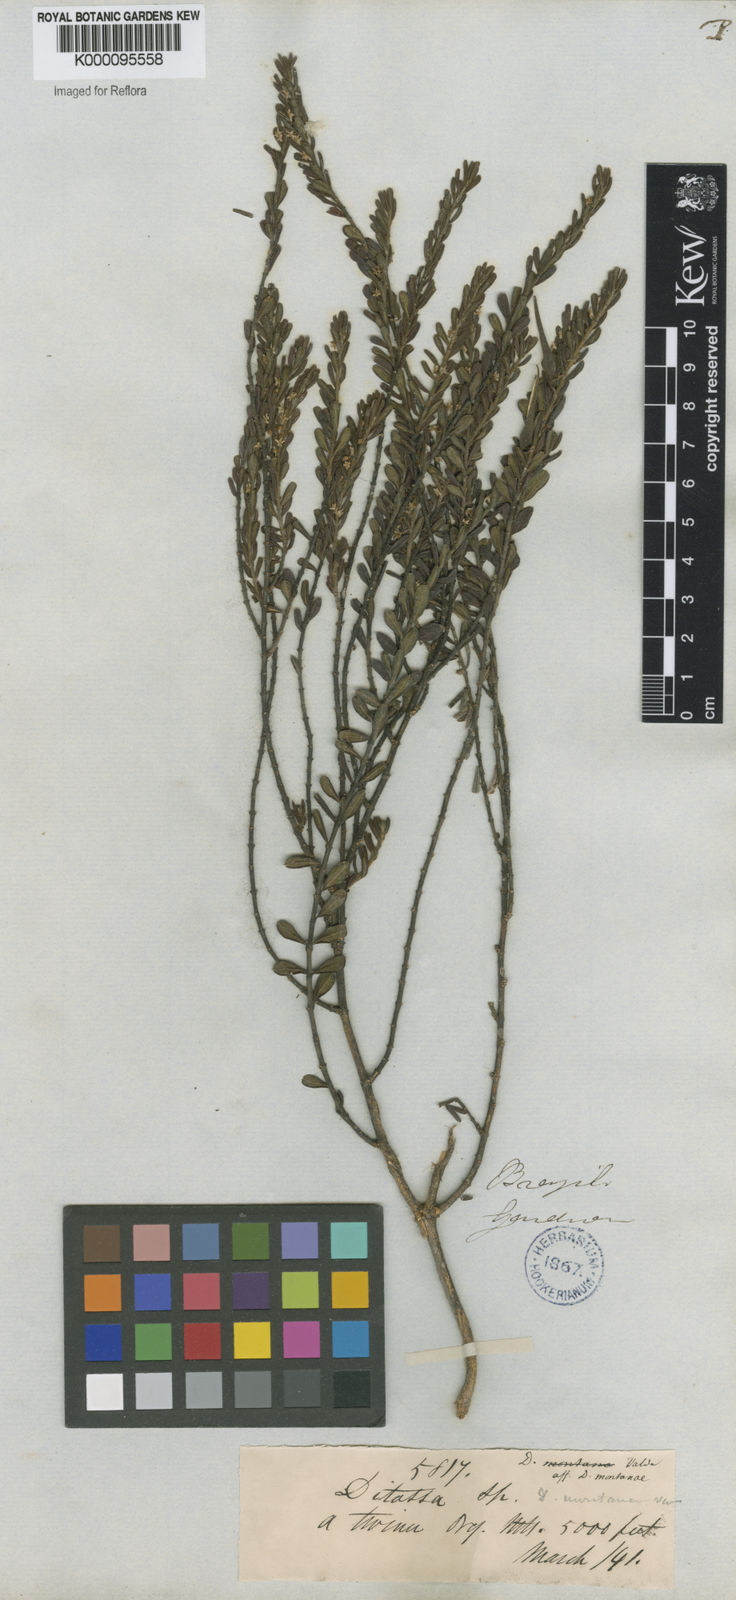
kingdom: Plantae
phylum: Tracheophyta
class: Magnoliopsida
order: Gentianales
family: Apocynaceae
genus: Ditassa
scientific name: Ditassa mucronata
